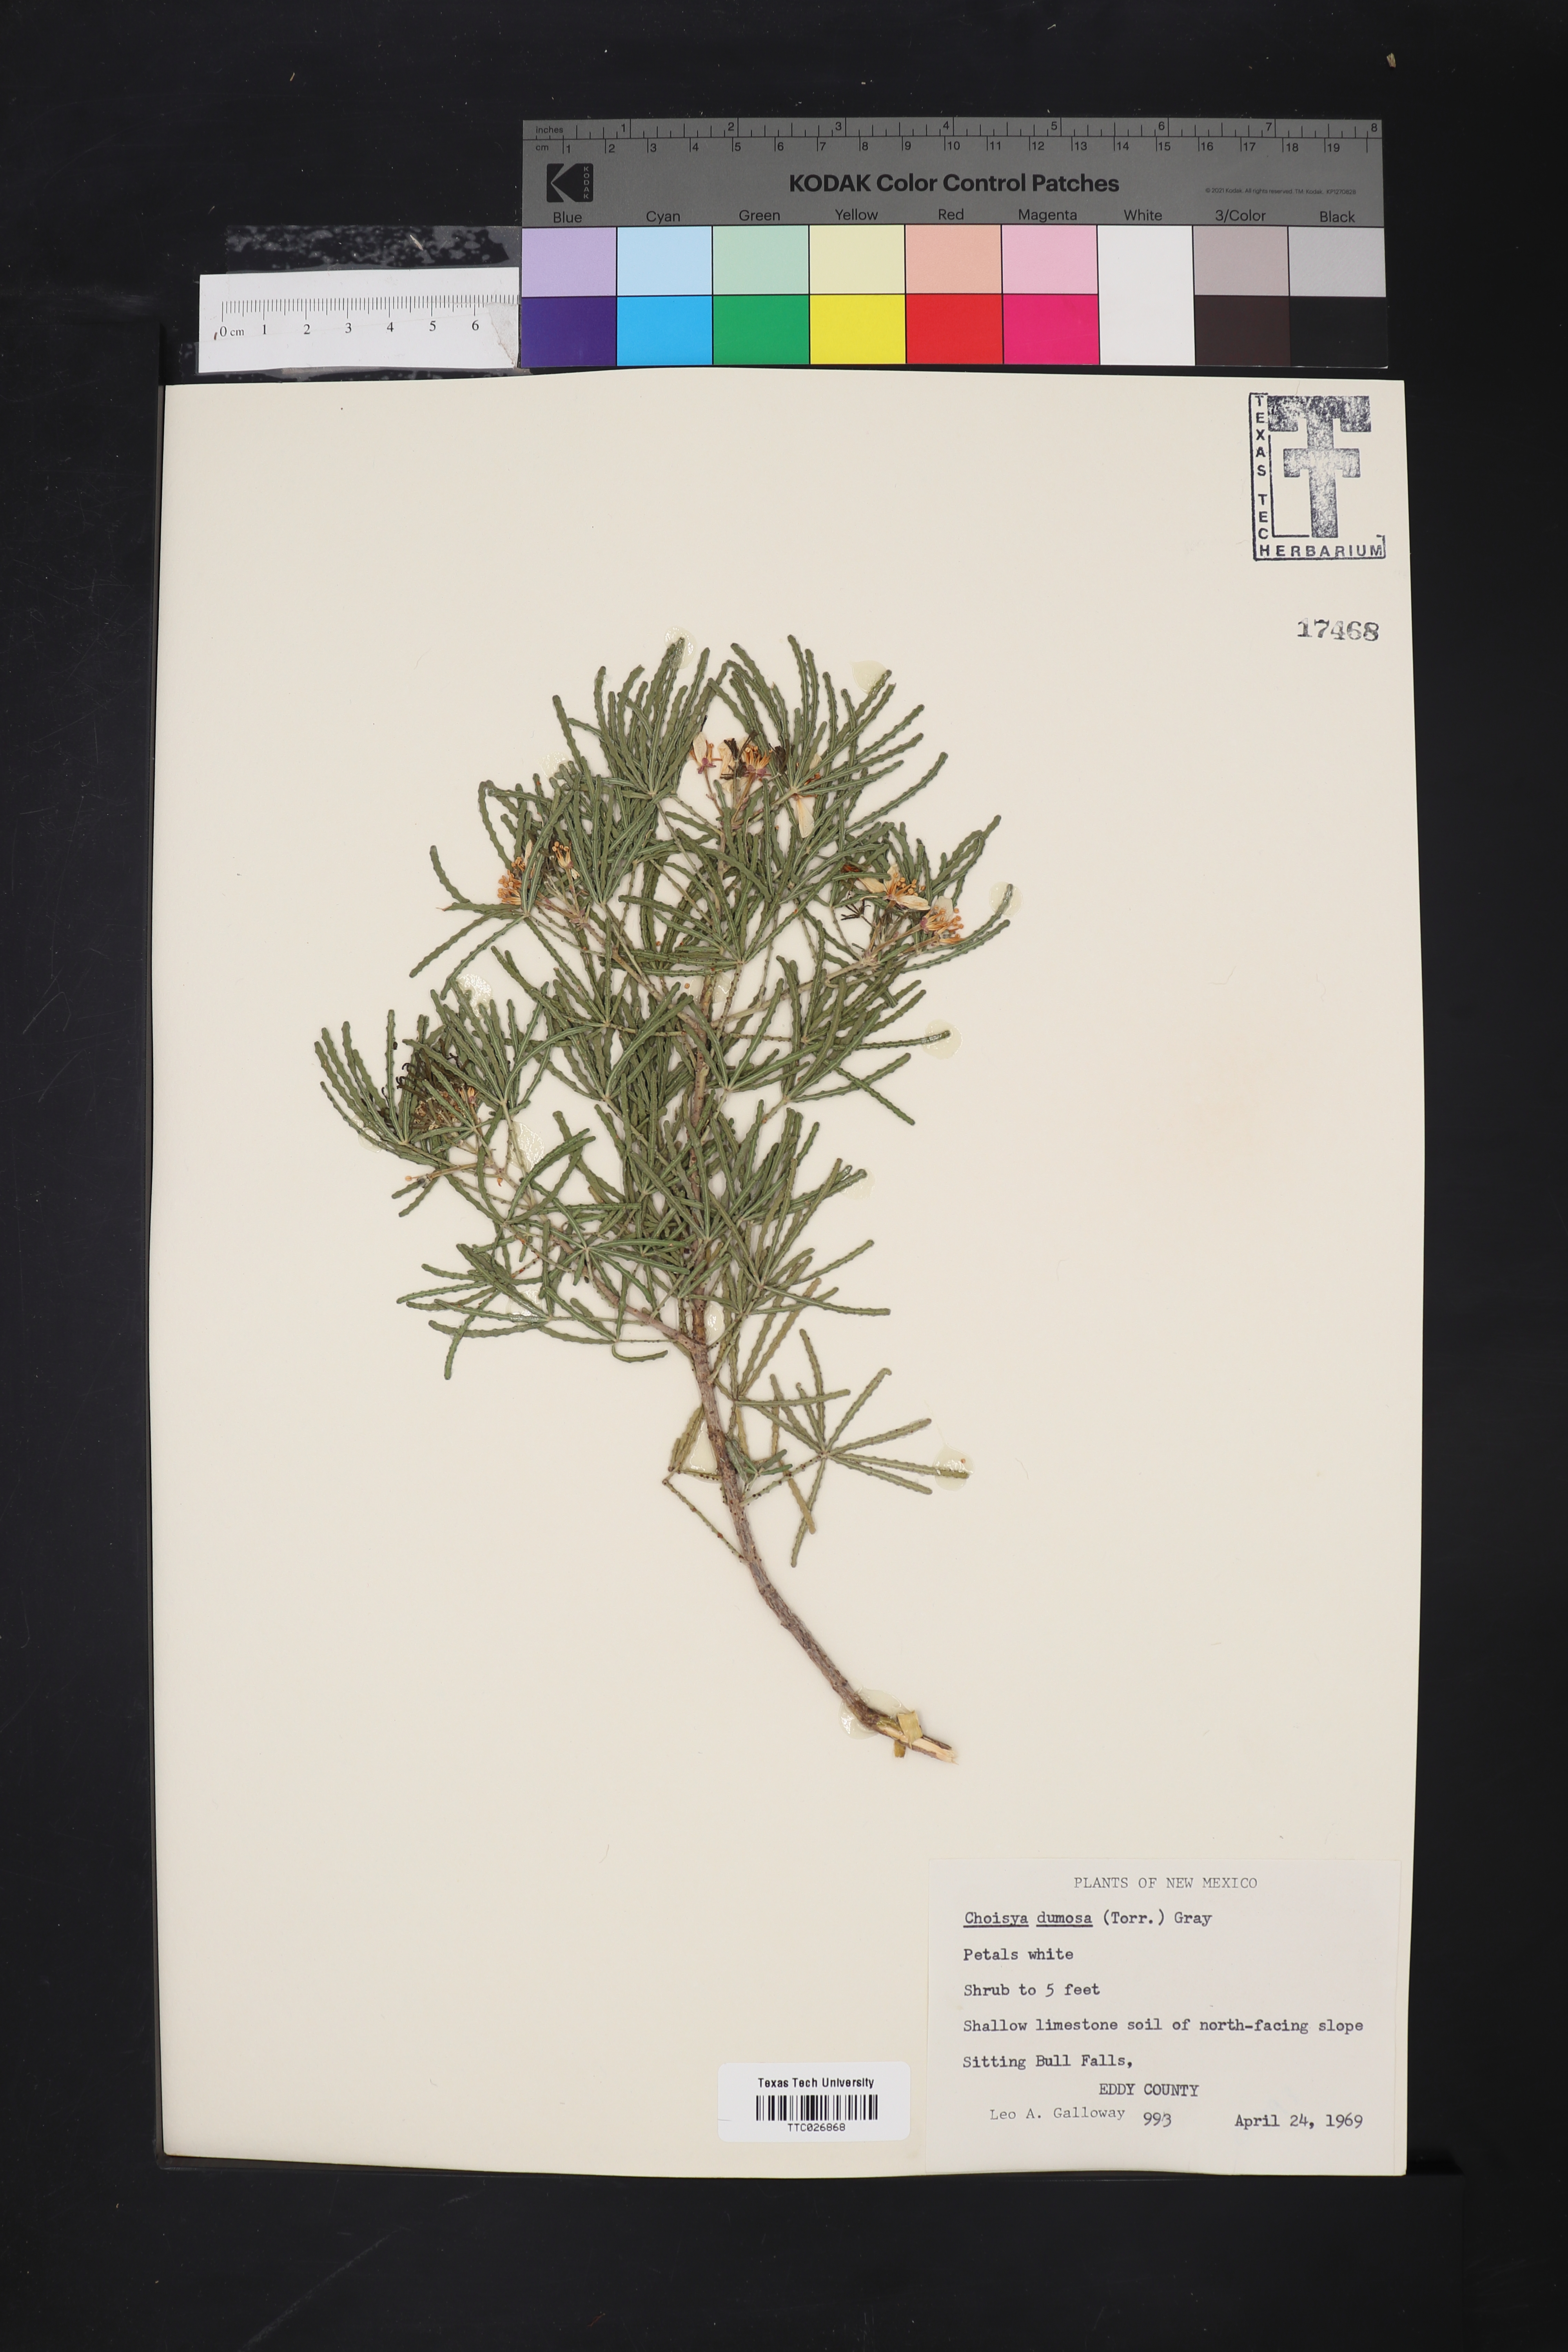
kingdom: Plantae
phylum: Tracheophyta
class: Magnoliopsida
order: Sapindales
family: Rutaceae
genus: Choisya
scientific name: Choisya dumosa
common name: Mexican-orange
